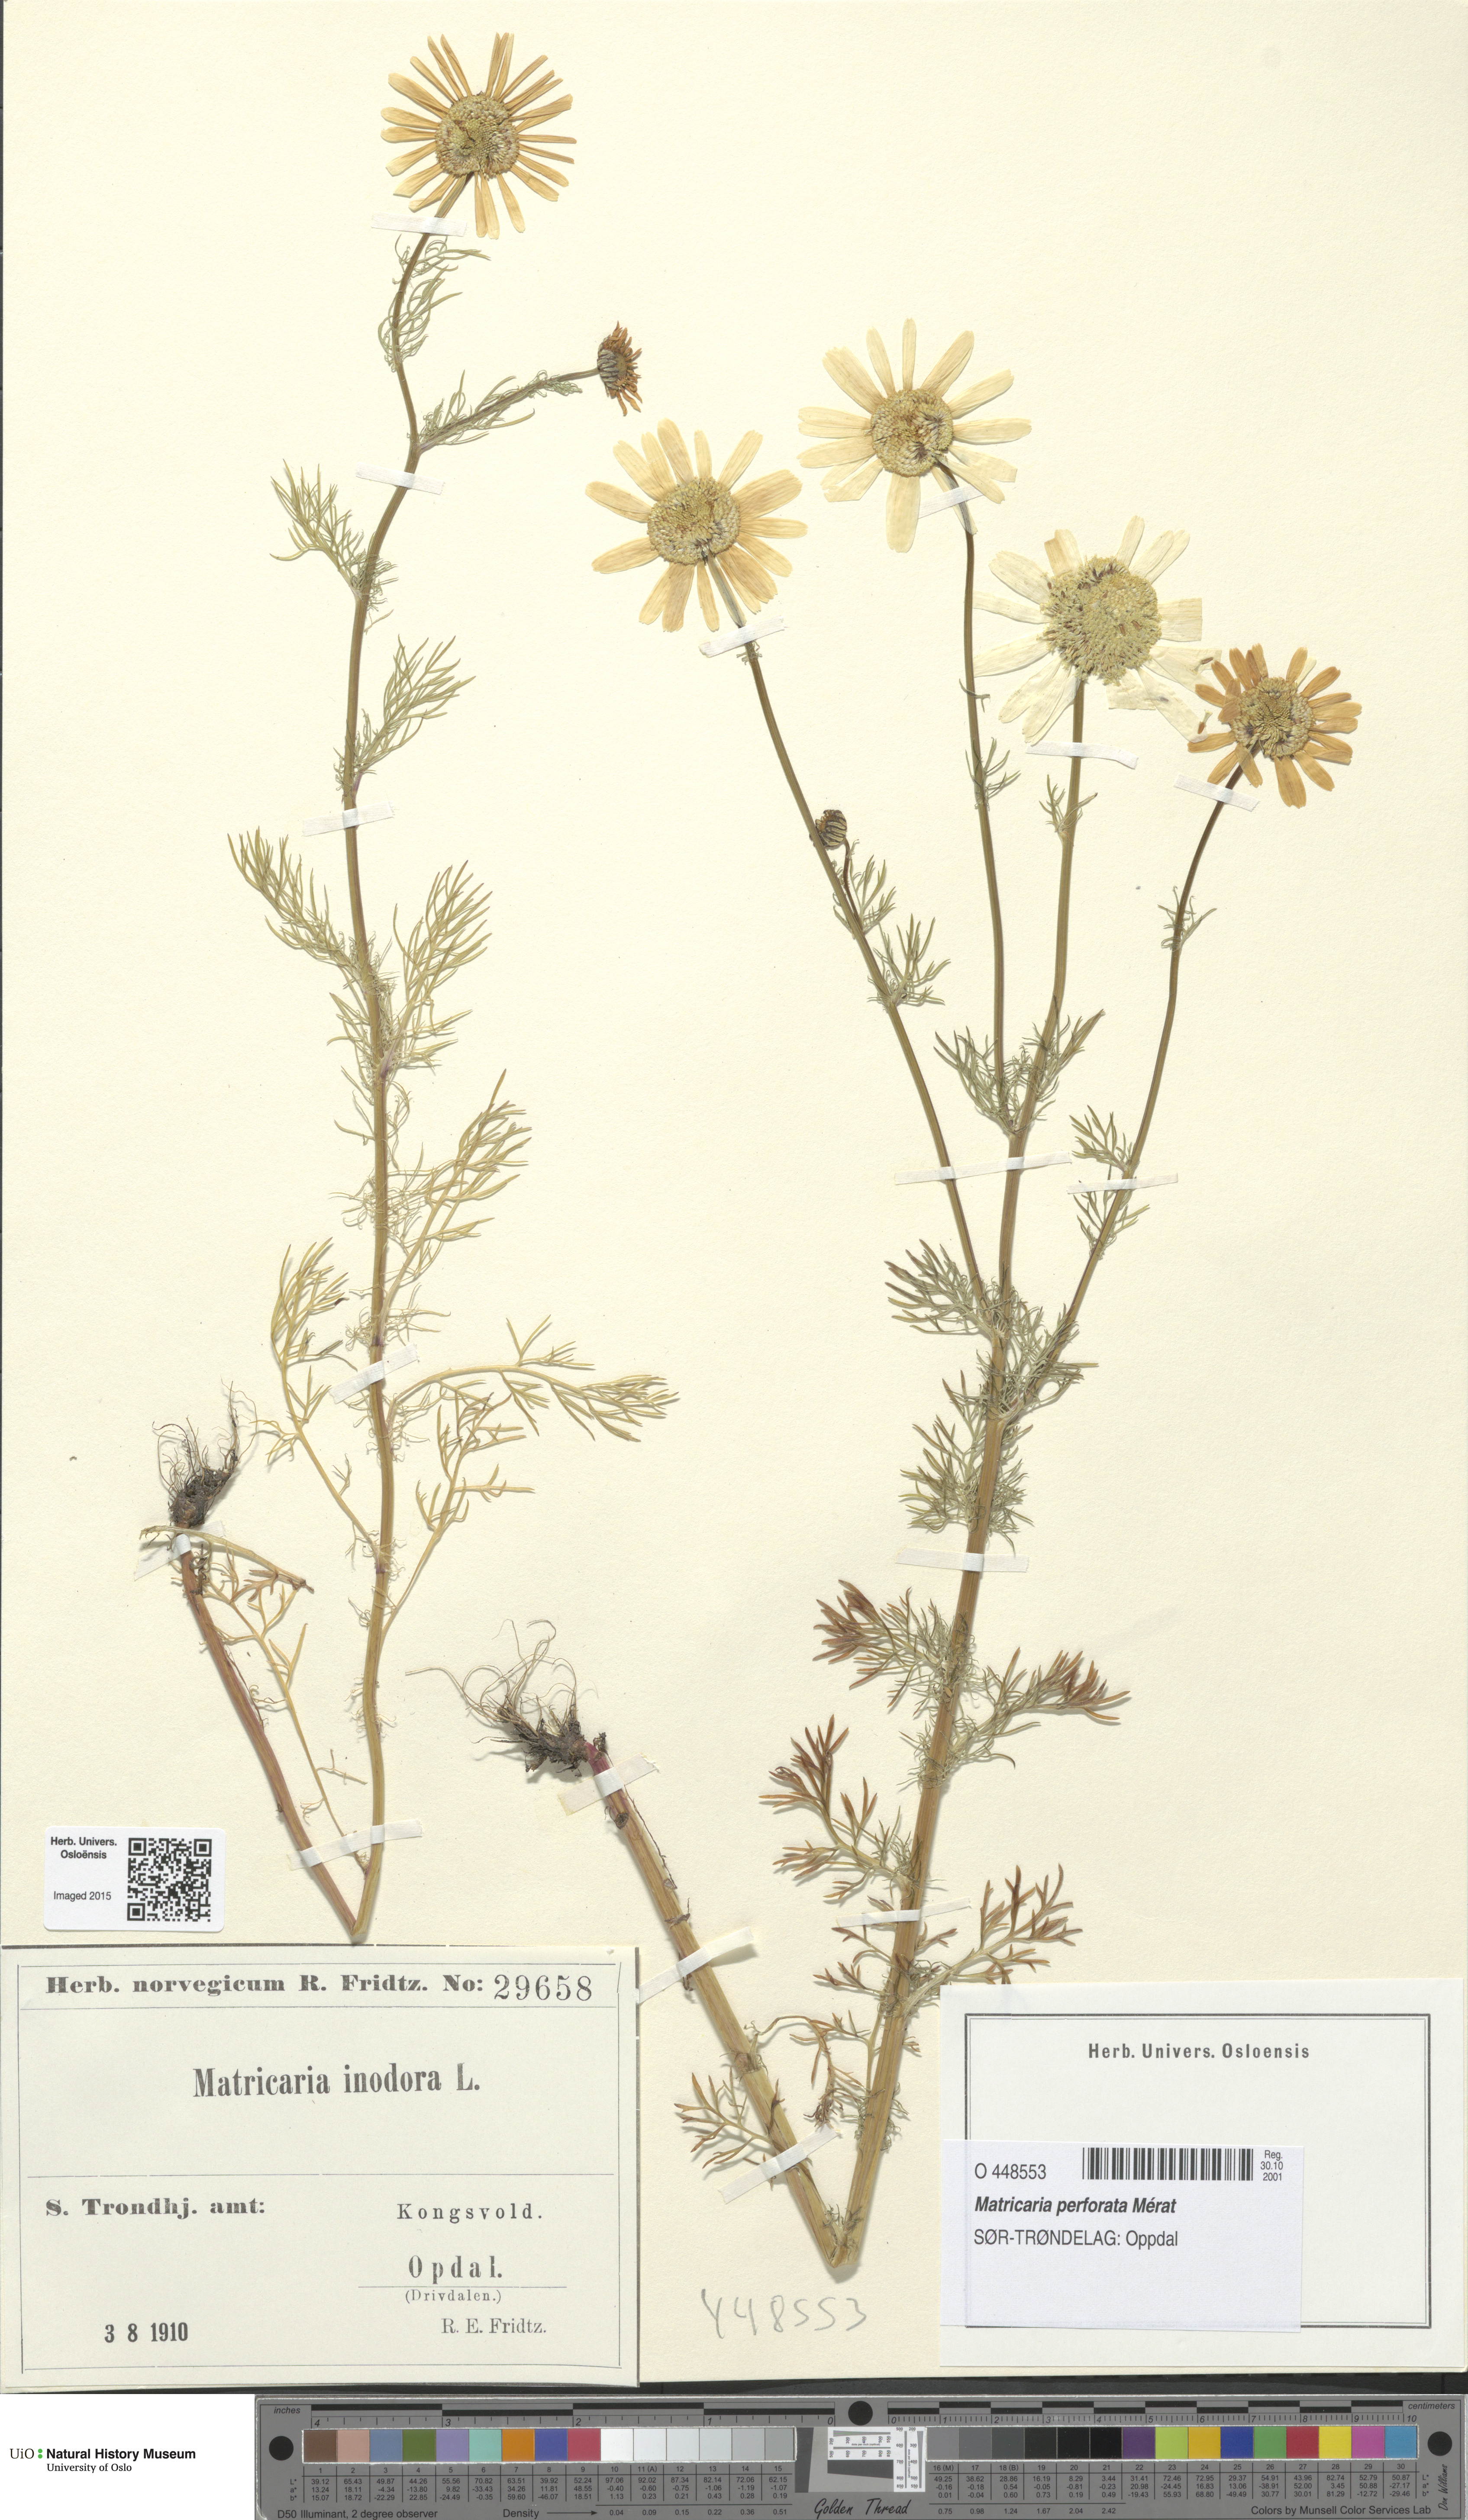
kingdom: Plantae
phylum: Tracheophyta
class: Magnoliopsida
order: Asterales
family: Asteraceae
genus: Tripleurospermum
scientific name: Tripleurospermum inodorum
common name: Scentless mayweed
